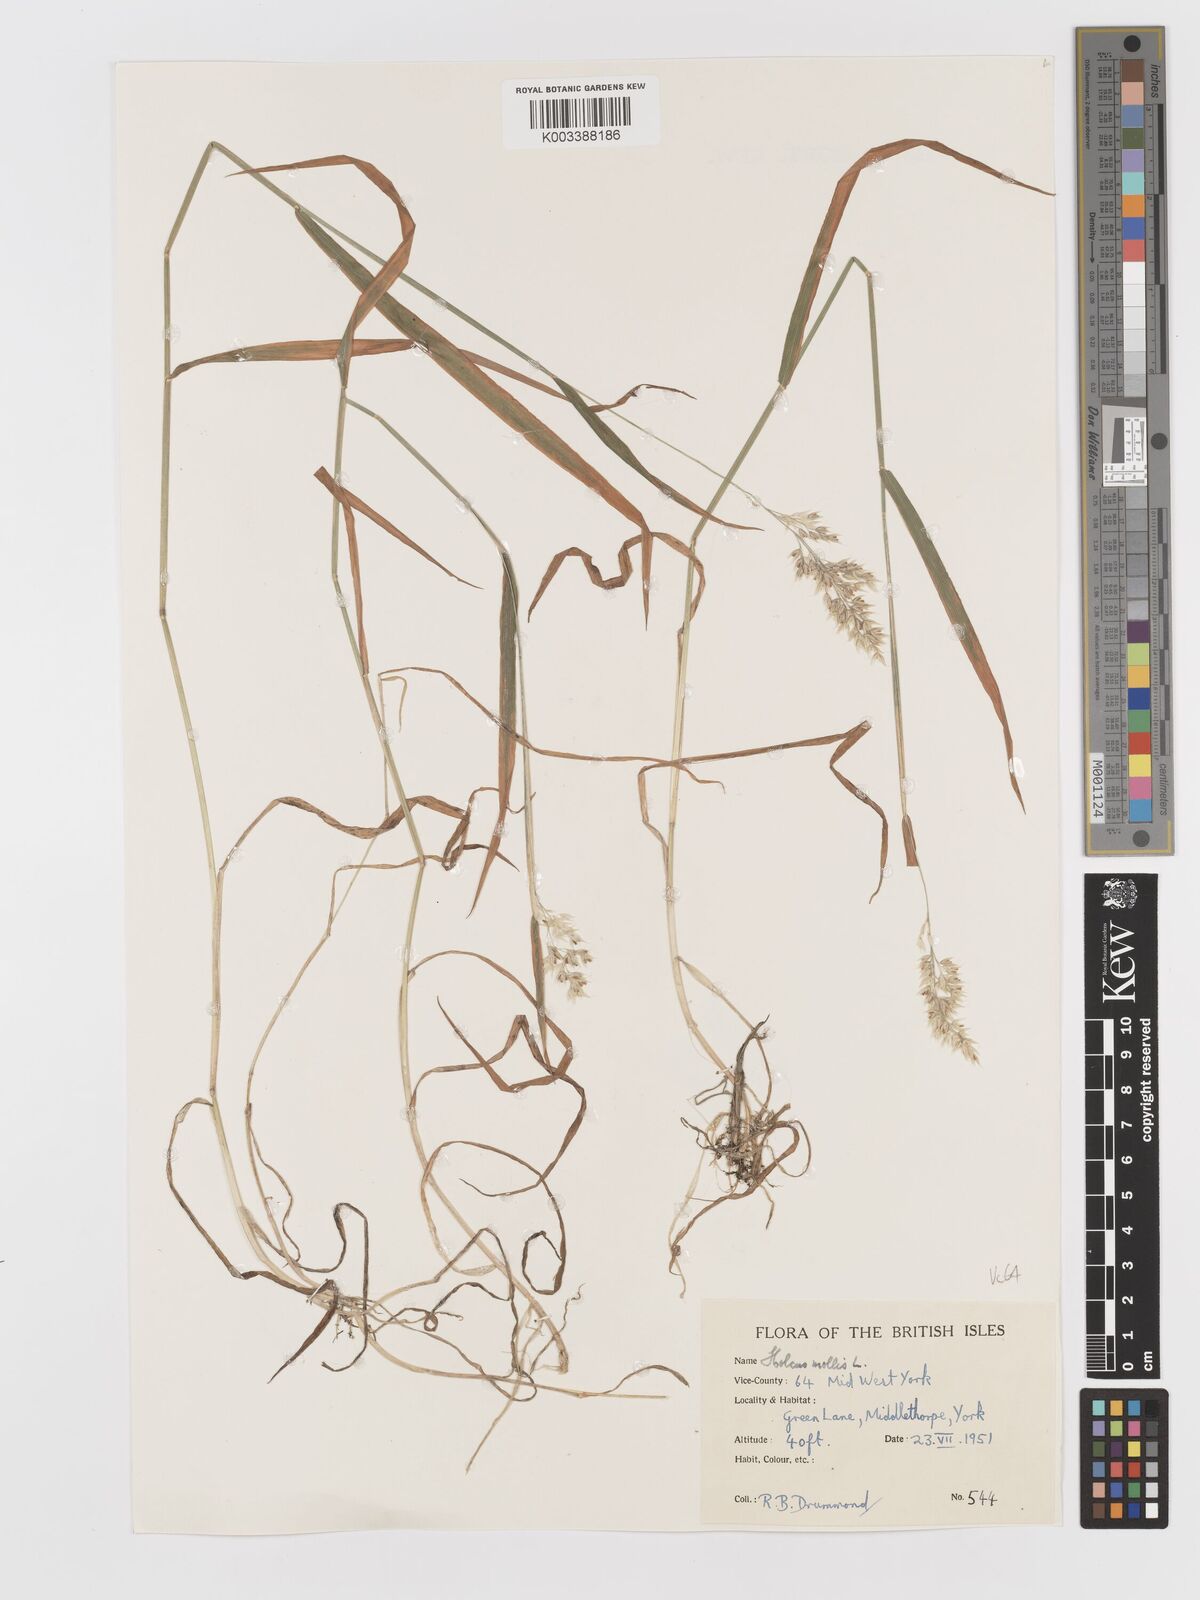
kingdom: Plantae
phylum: Tracheophyta
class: Liliopsida
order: Poales
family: Poaceae
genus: Holcus
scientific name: Holcus mollis
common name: Creeping velvetgrass
